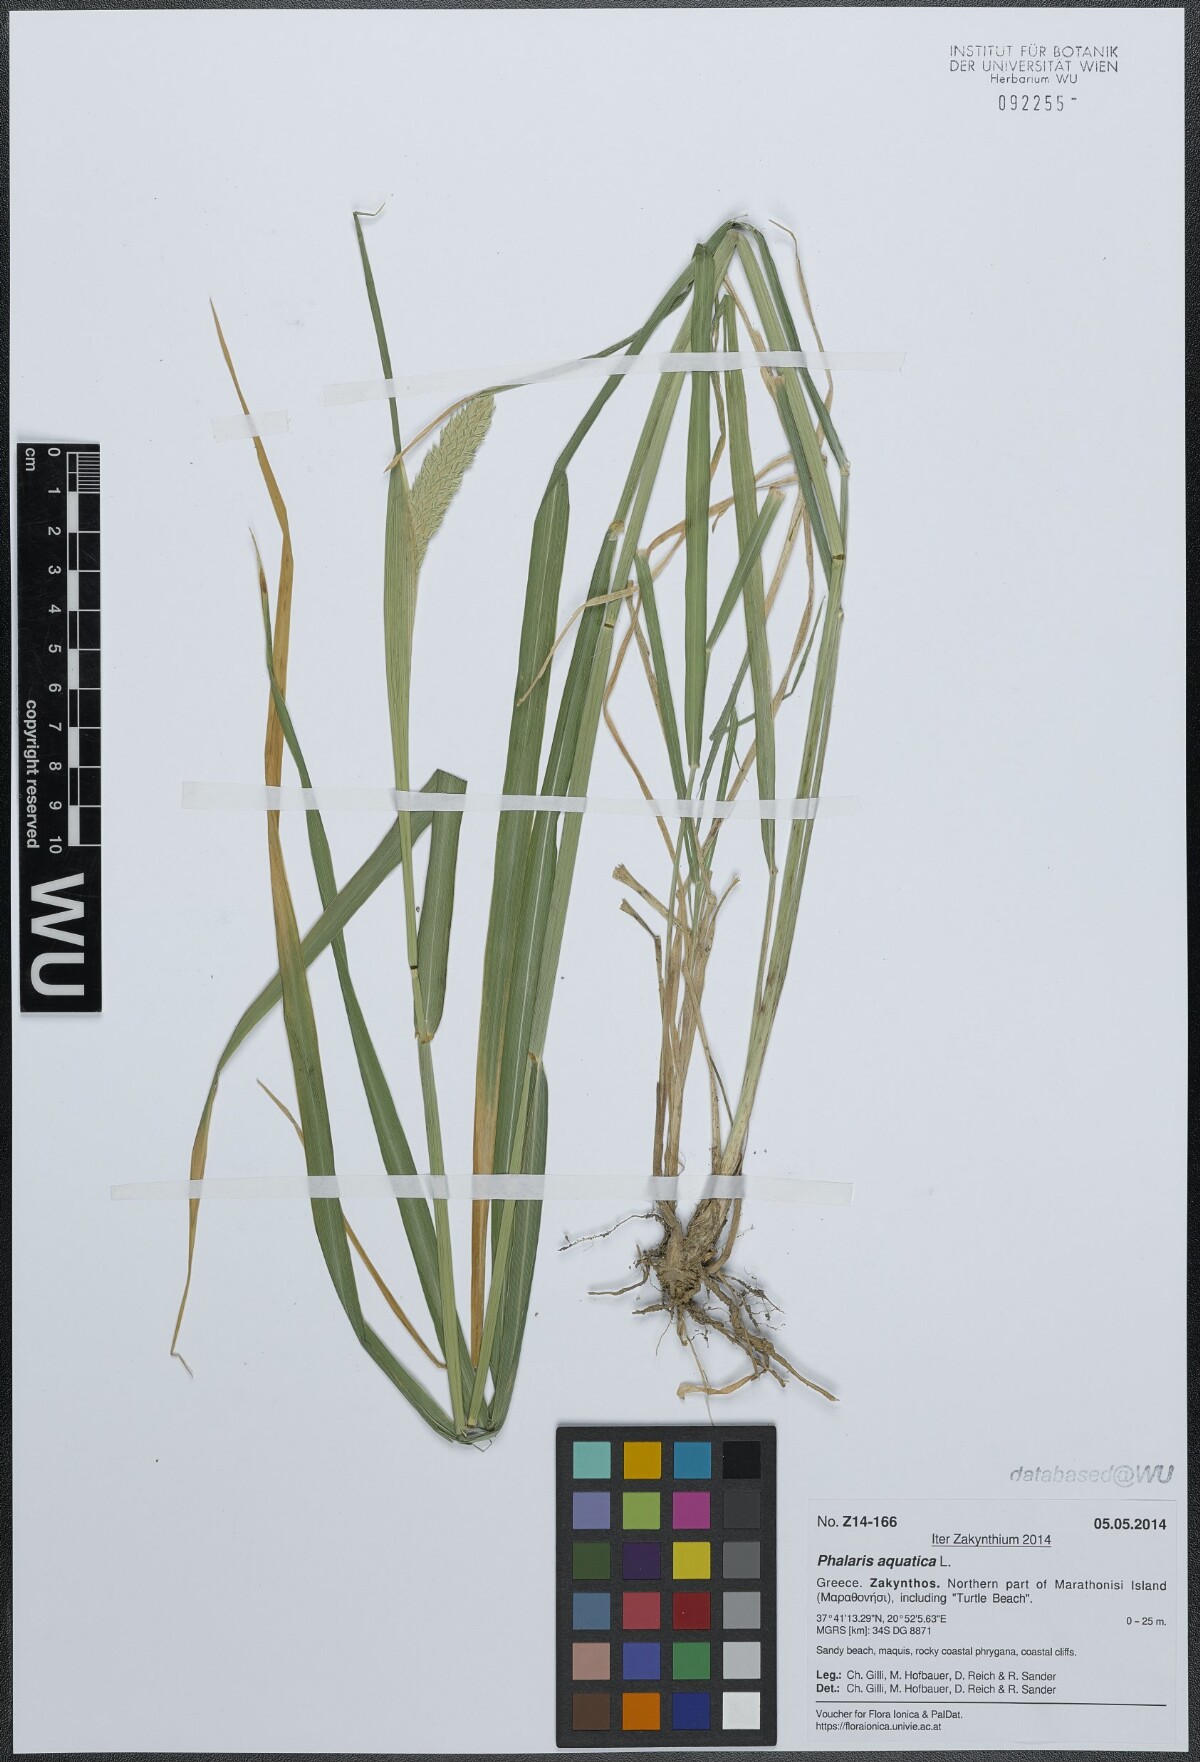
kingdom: Plantae
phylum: Tracheophyta
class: Liliopsida
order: Poales
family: Poaceae
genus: Phalaris
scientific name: Phalaris aquatica
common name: Bulbous canary-grass
